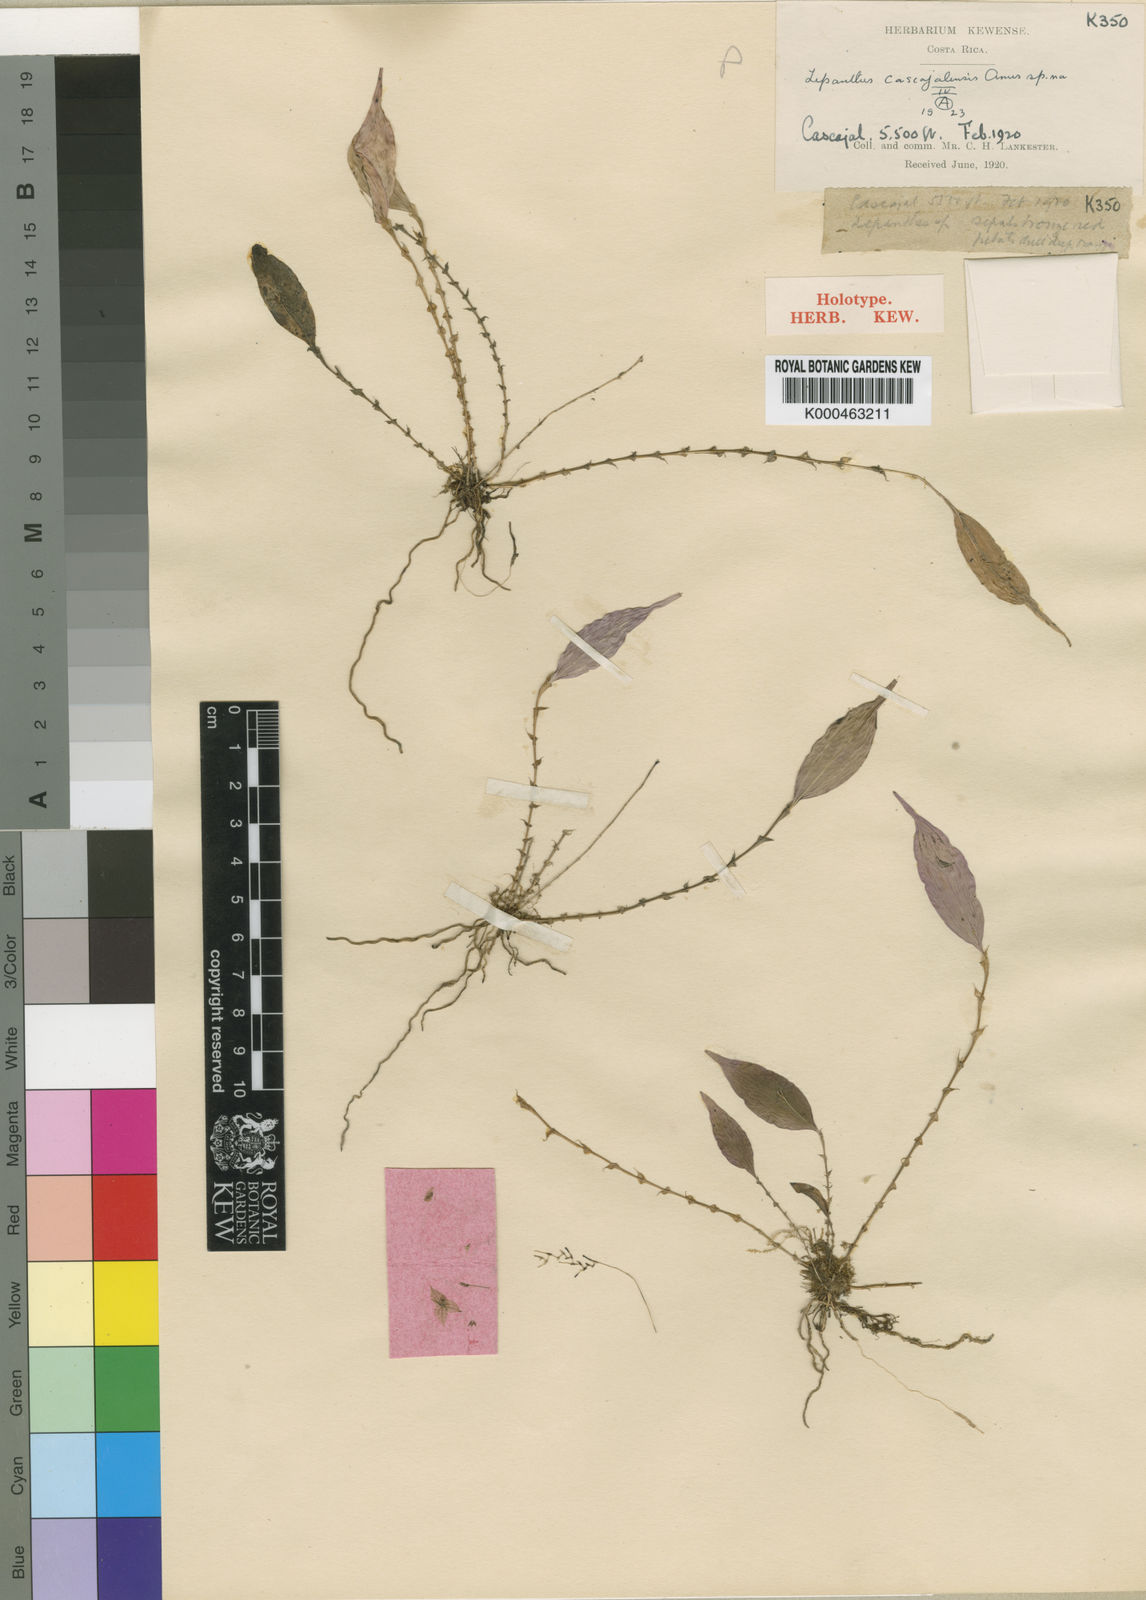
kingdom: Plantae
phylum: Tracheophyta
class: Liliopsida
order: Asparagales
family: Orchidaceae
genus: Lepanthes
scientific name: Lepanthes eciliata
